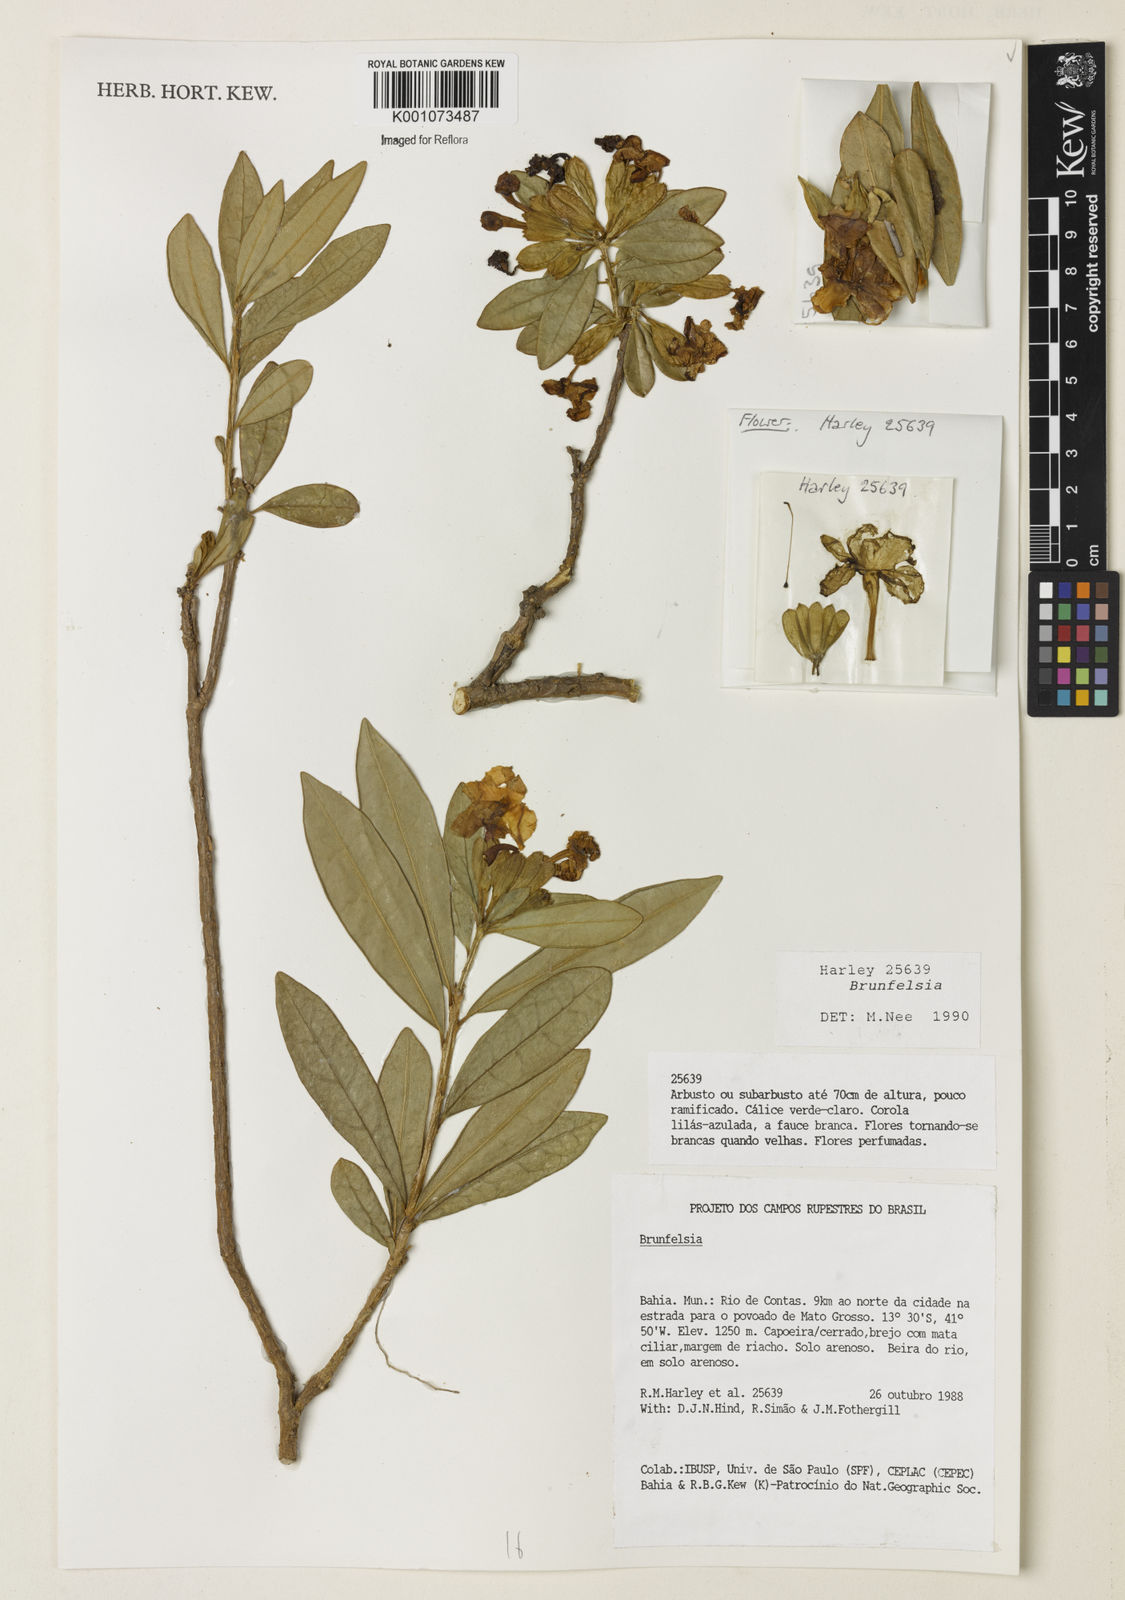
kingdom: Plantae
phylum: Tracheophyta
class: Magnoliopsida
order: Solanales
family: Solanaceae
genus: Brunfelsia
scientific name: Brunfelsia
